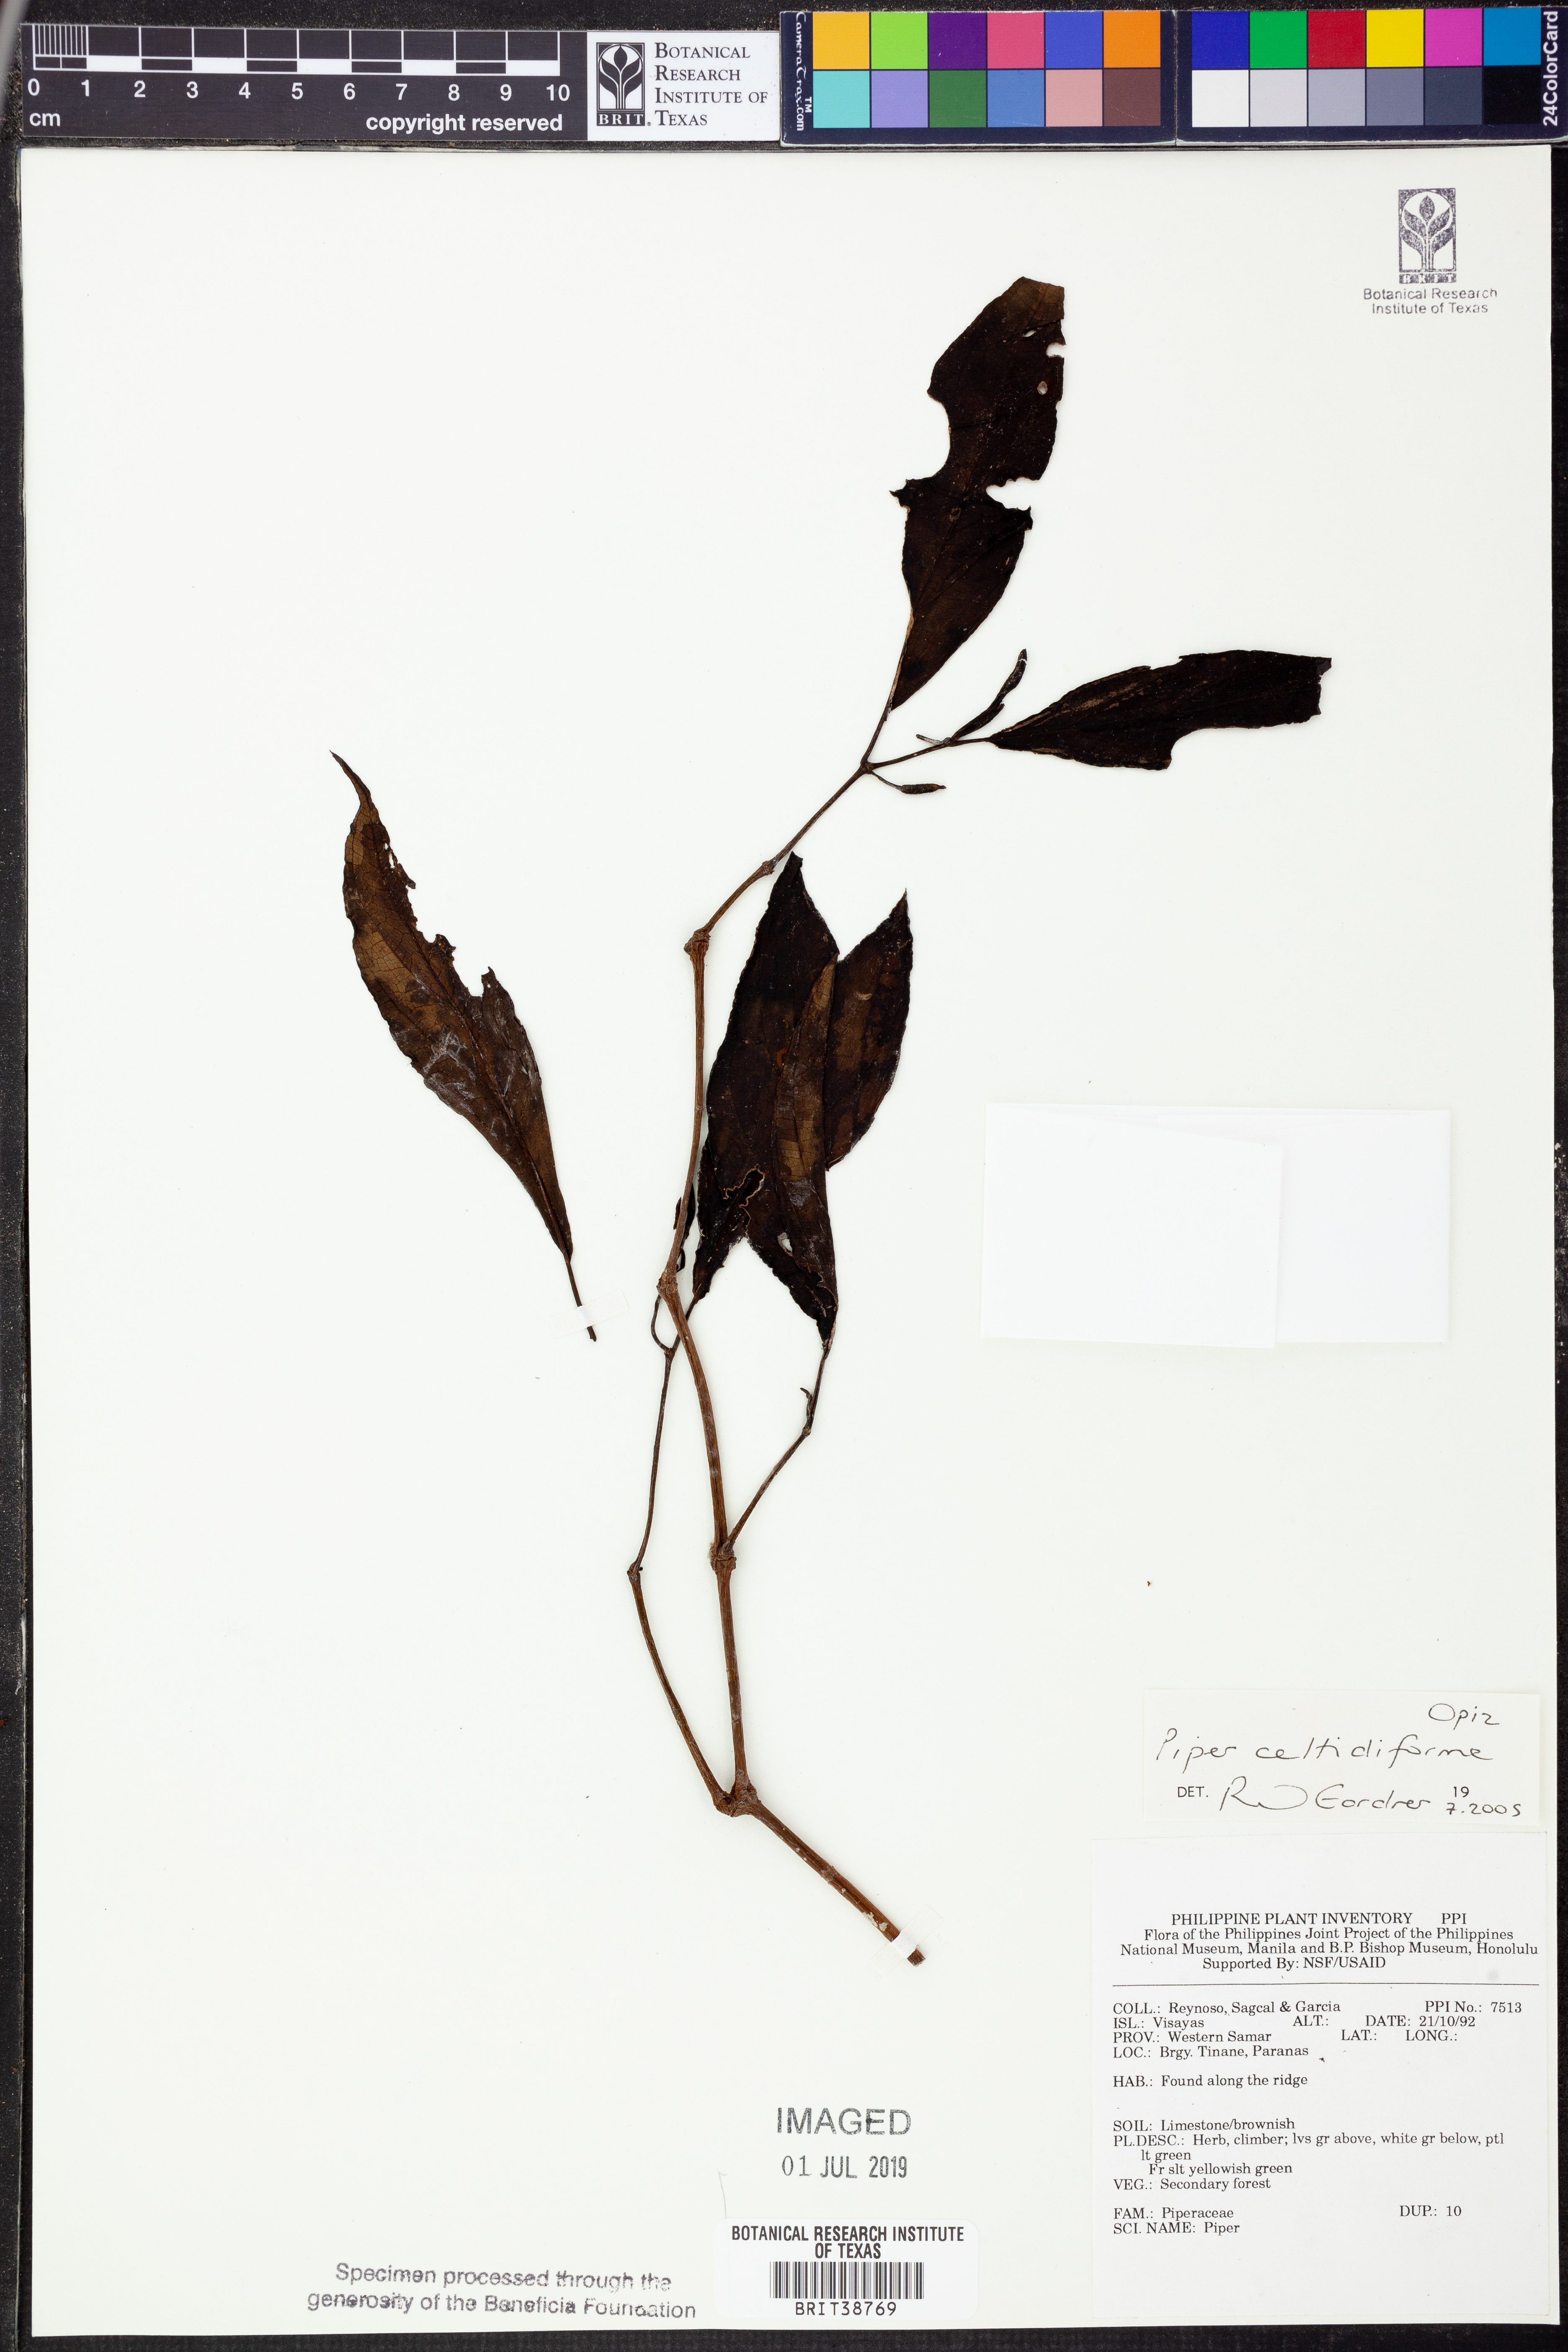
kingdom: Plantae
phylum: Tracheophyta
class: Magnoliopsida
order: Piperales
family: Piperaceae
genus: Piper
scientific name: Piper celtidiforme
